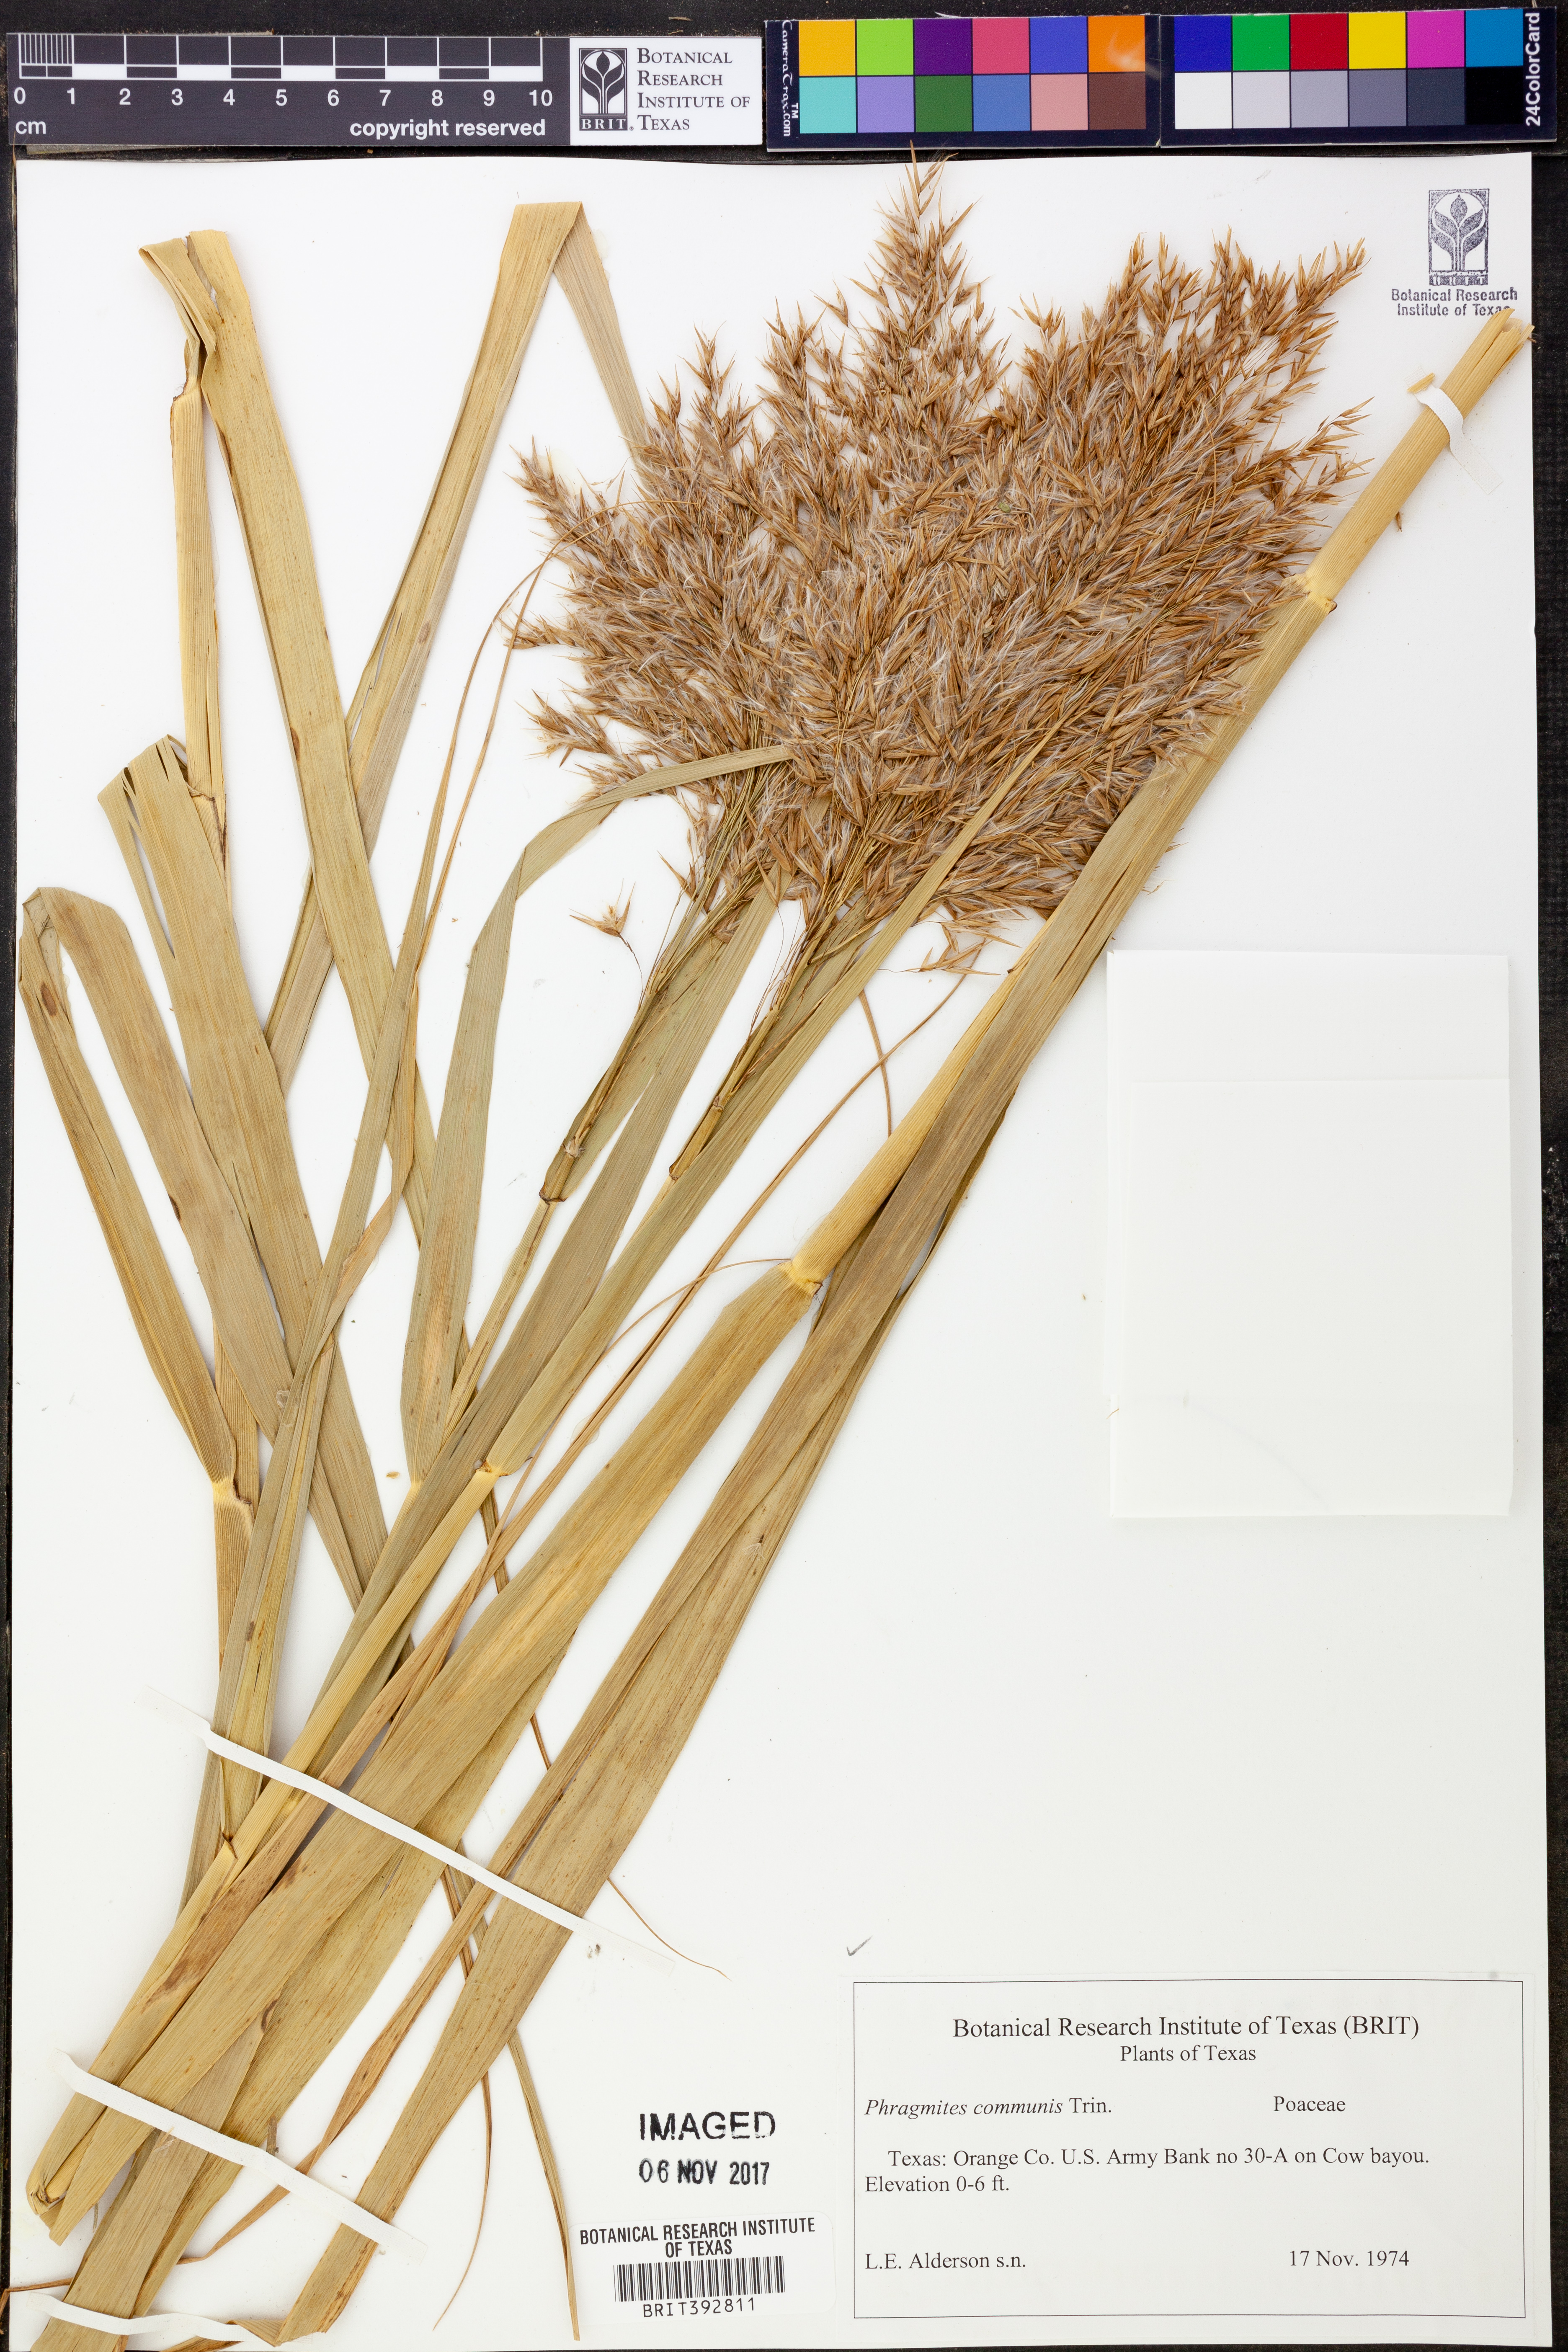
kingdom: Plantae
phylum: Tracheophyta
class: Liliopsida
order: Poales
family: Poaceae
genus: Phragmites
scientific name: Phragmites australis
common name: Common reed
